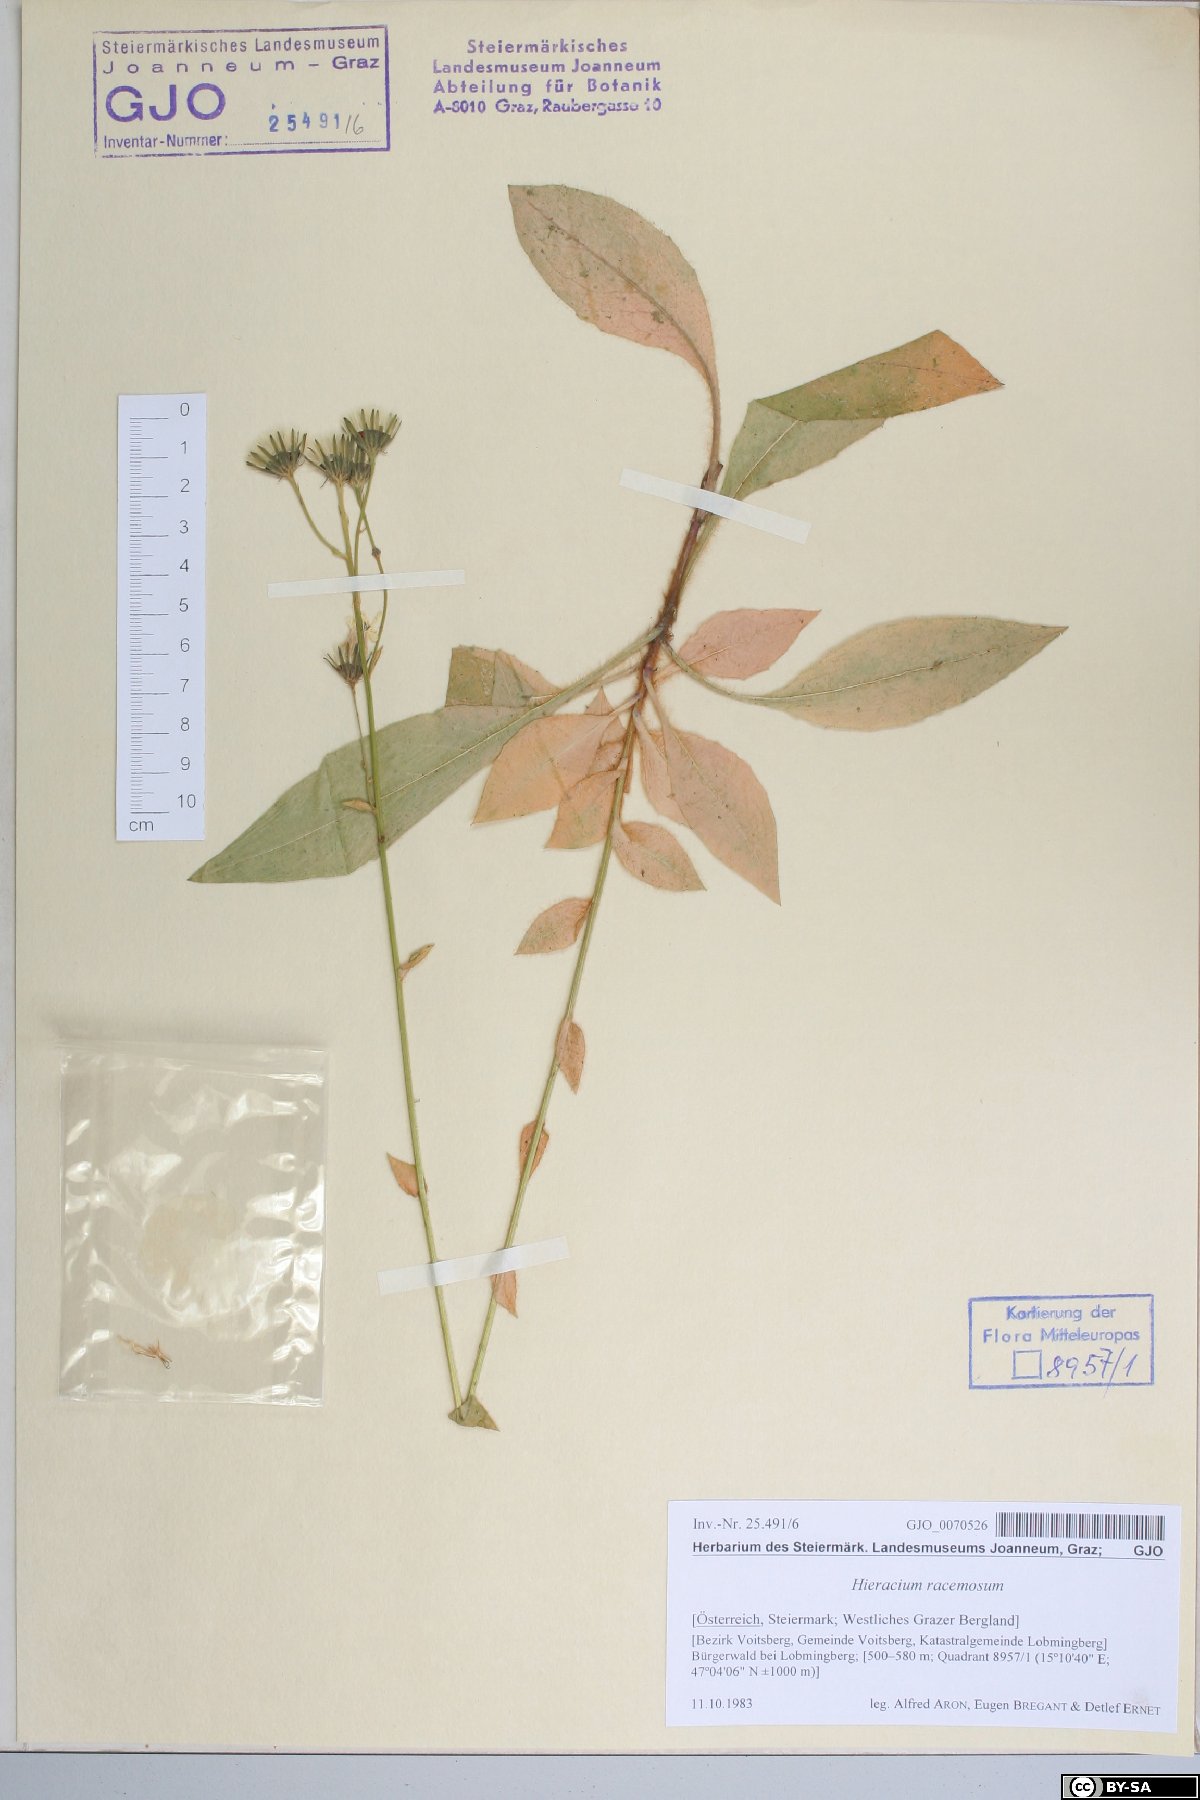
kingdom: Plantae
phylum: Tracheophyta
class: Magnoliopsida
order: Asterales
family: Asteraceae
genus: Hieracium
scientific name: Hieracium racemosum
